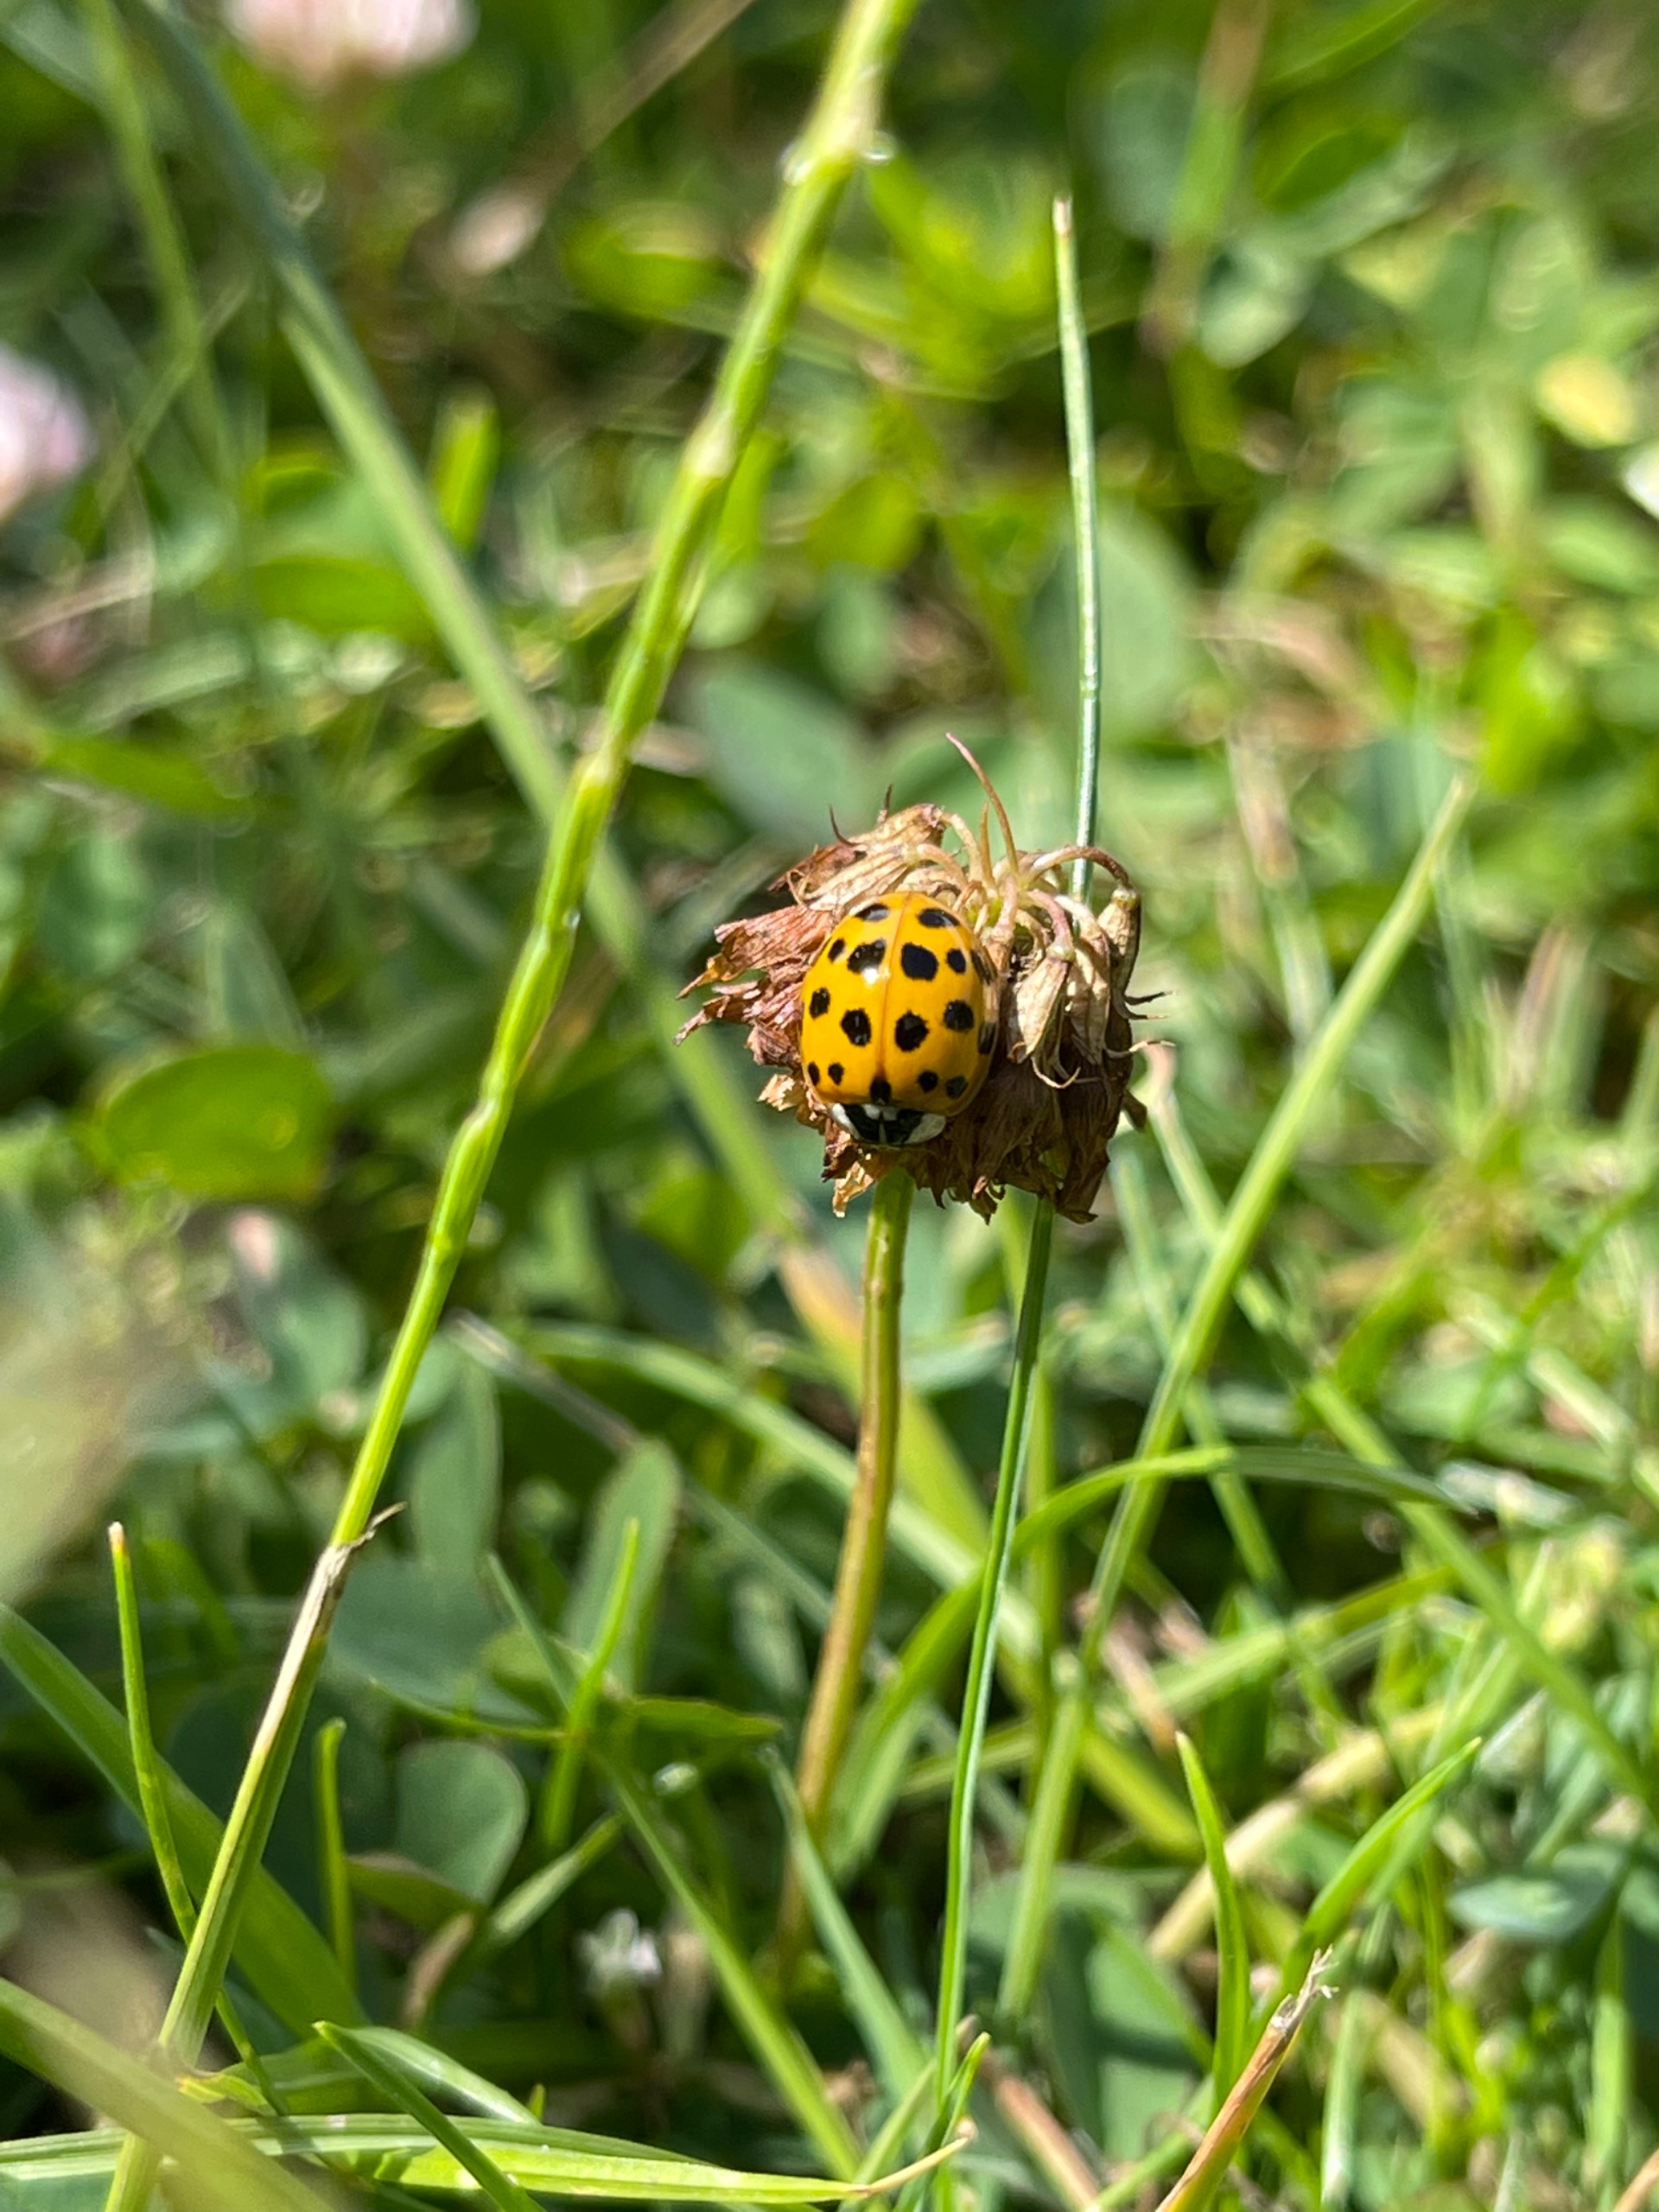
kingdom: Animalia
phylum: Arthropoda
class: Insecta
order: Coleoptera
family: Coccinellidae
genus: Harmonia
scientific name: Harmonia axyridis
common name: Harlekinmariehøne
